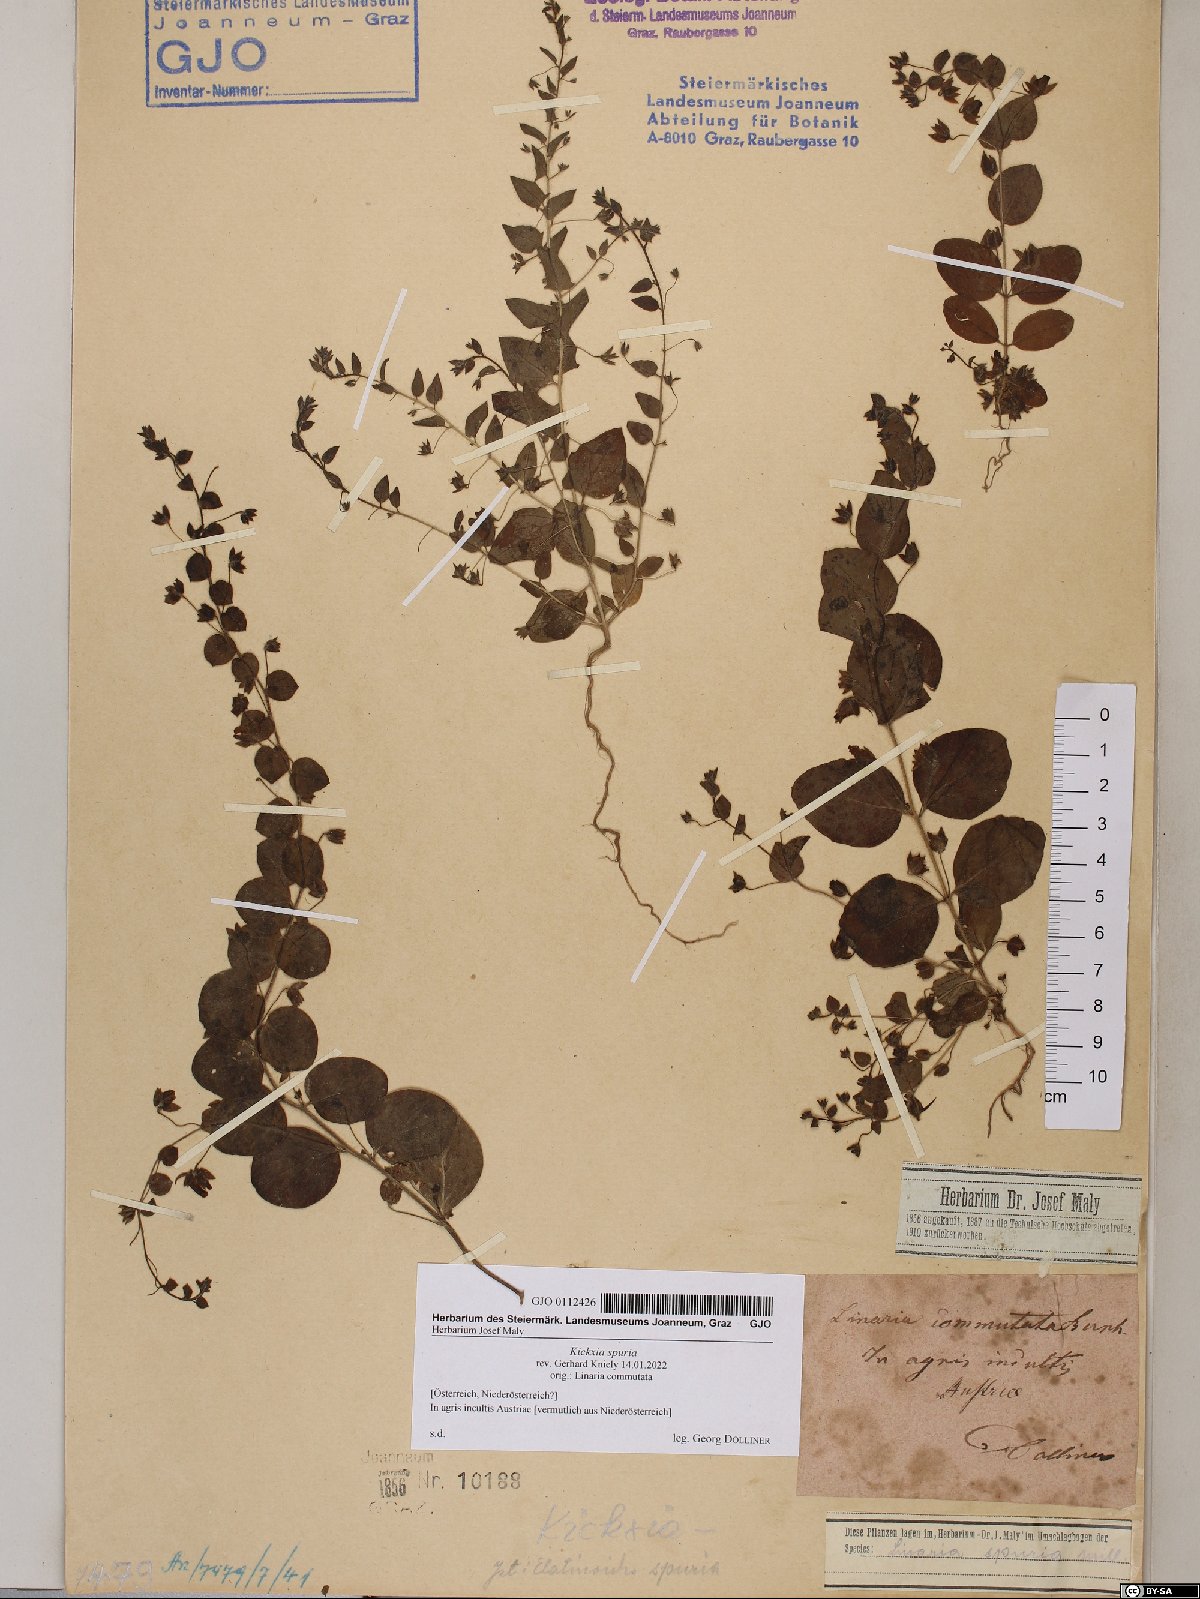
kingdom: Plantae
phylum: Tracheophyta
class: Magnoliopsida
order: Lamiales
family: Plantaginaceae
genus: Kickxia
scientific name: Kickxia spuria
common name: Round-leaved fluellen
